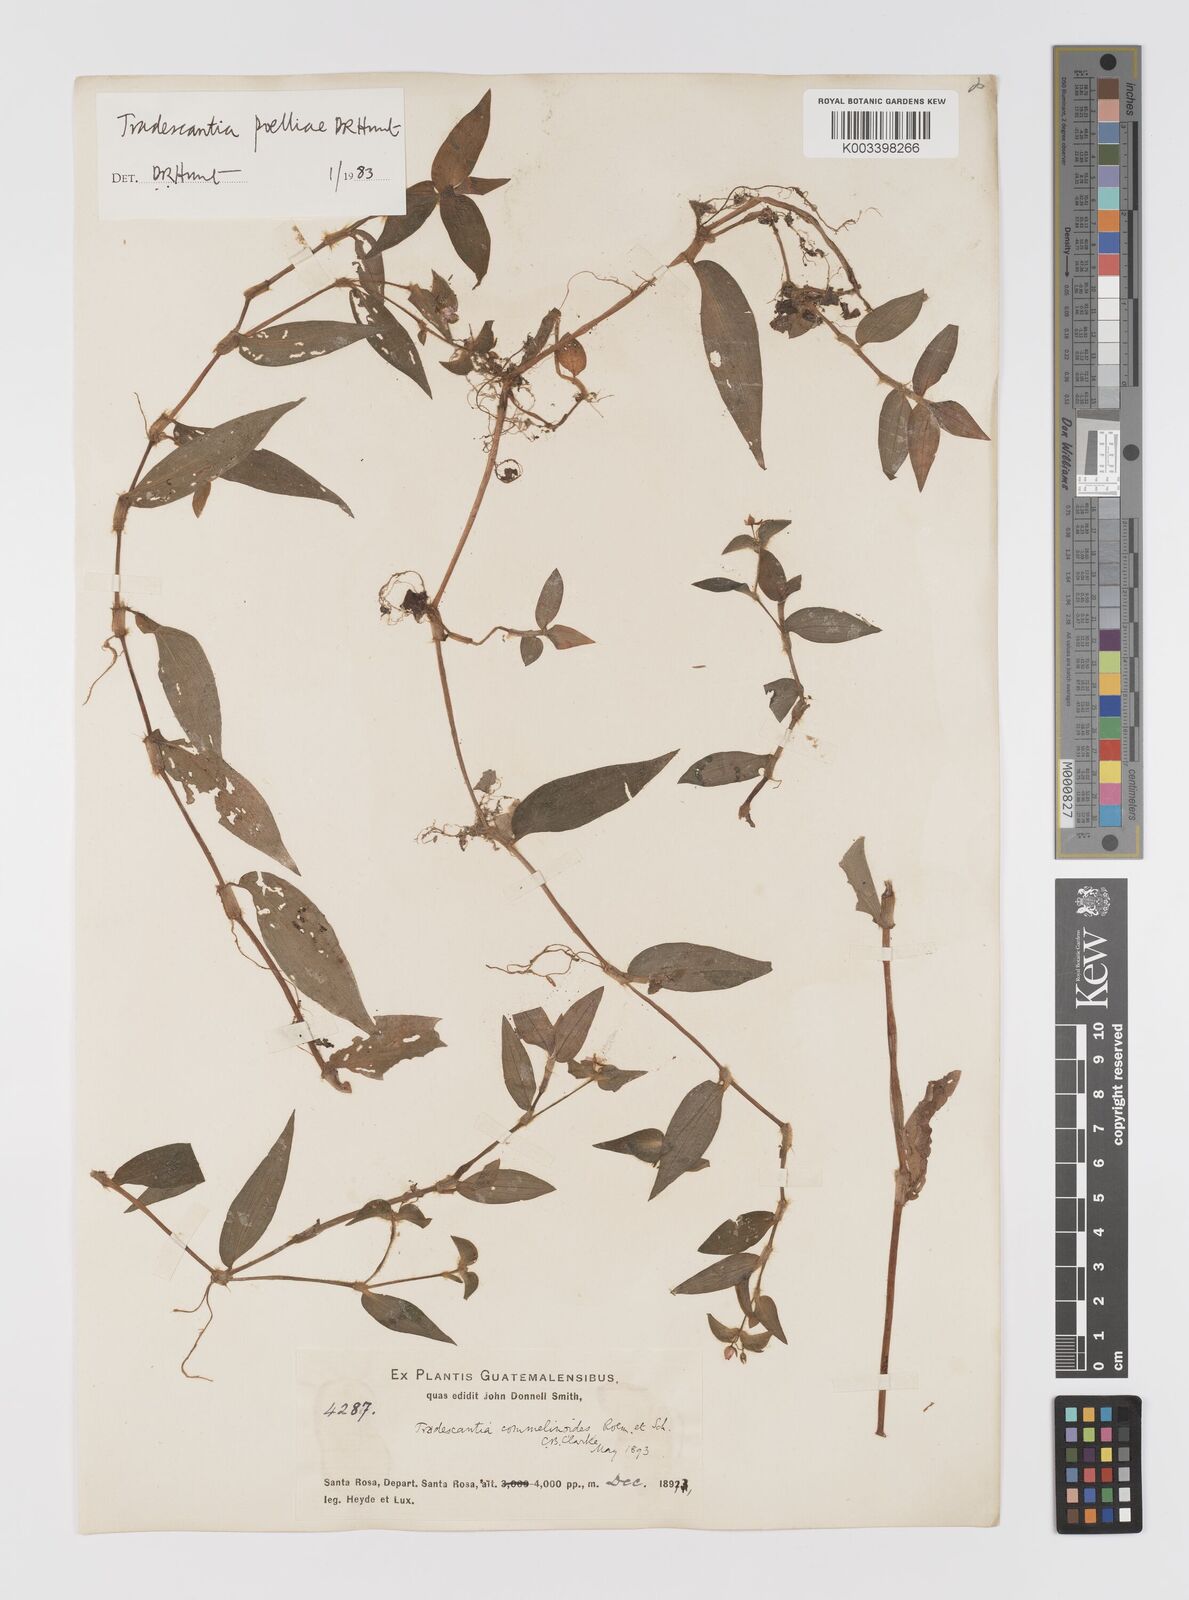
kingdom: Plantae
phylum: Tracheophyta
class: Liliopsida
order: Commelinales
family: Commelinaceae
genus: Tradescantia
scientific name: Tradescantia poelliae
